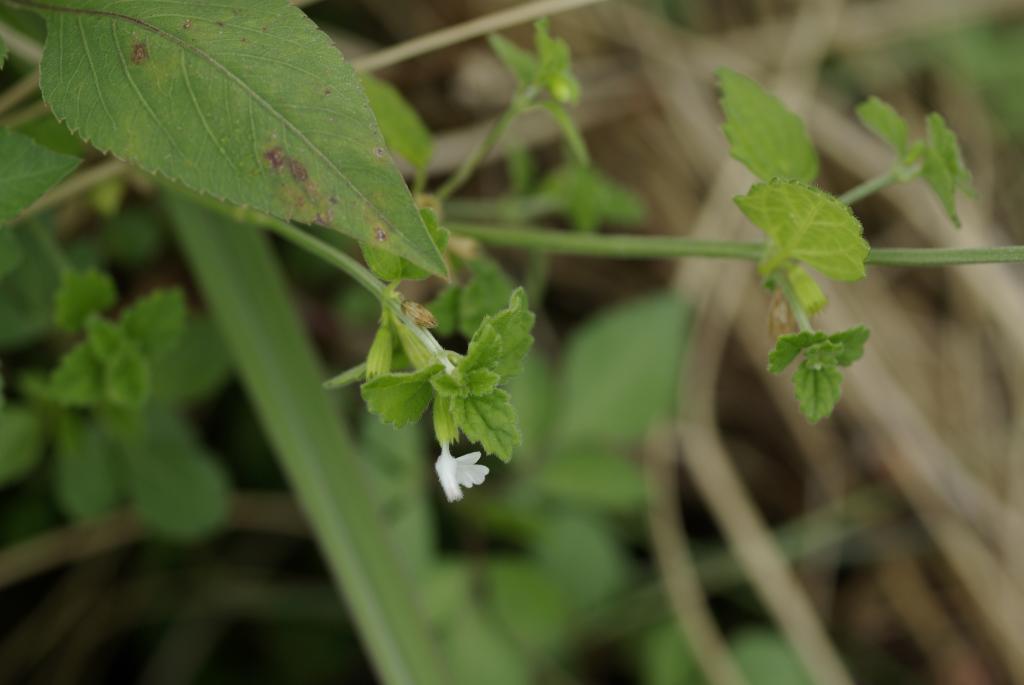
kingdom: Plantae
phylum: Tracheophyta
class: Magnoliopsida
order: Lamiales
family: Lamiaceae
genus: Leucas
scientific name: Leucas chinensis
